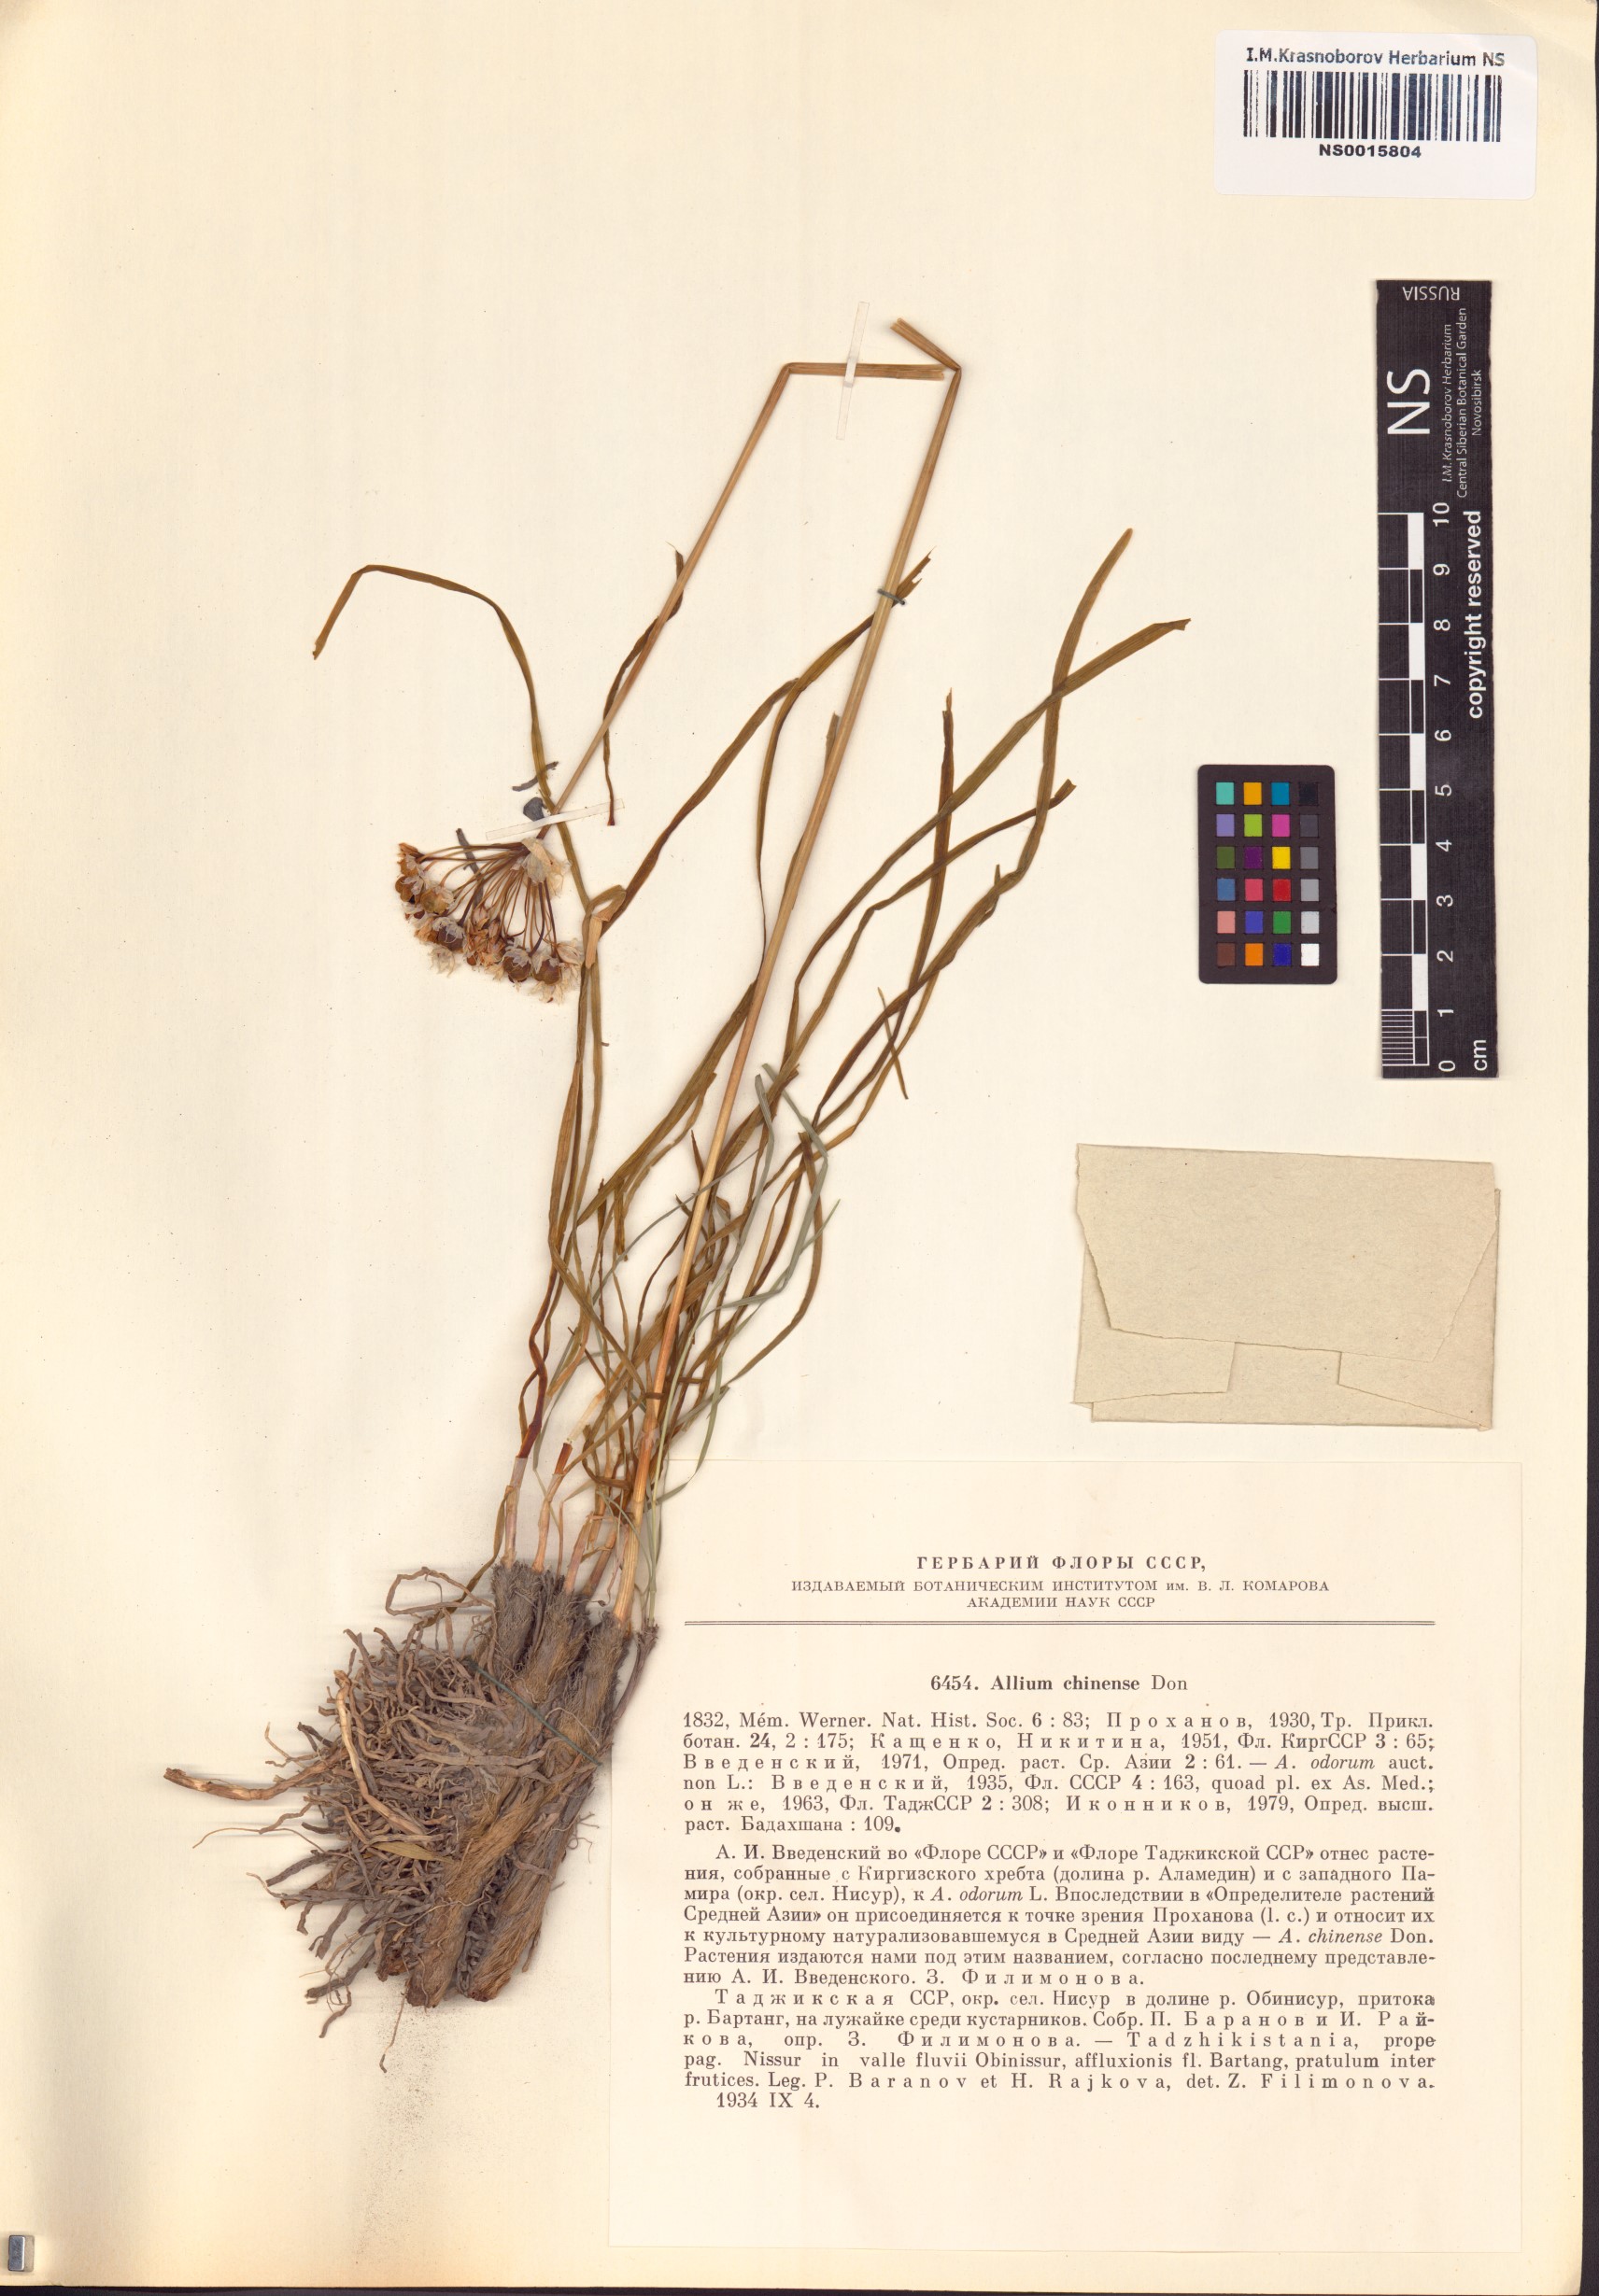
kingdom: Plantae
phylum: Tracheophyta
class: Liliopsida
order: Asparagales
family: Amaryllidaceae
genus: Allium
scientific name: Allium chinense
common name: Japanese scallion
